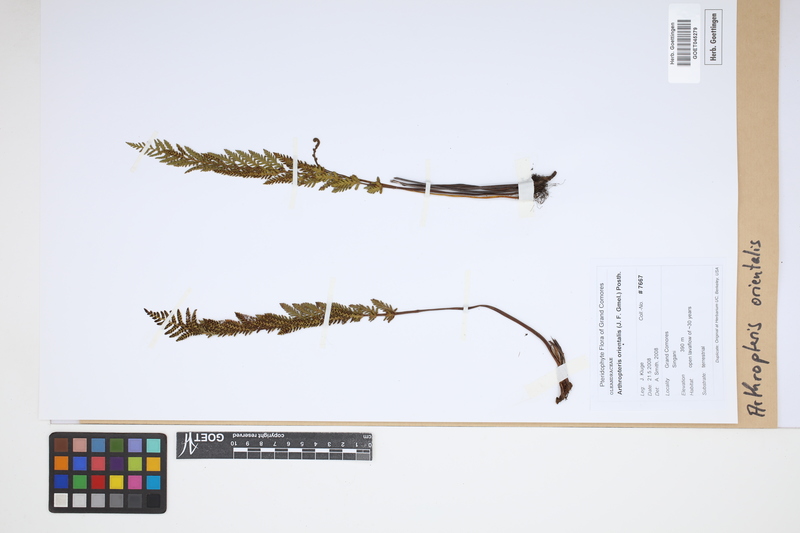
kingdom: Plantae
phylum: Tracheophyta
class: Polypodiopsida
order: Polypodiales
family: Tectariaceae
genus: Arthropteris
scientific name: Arthropteris orientalis
